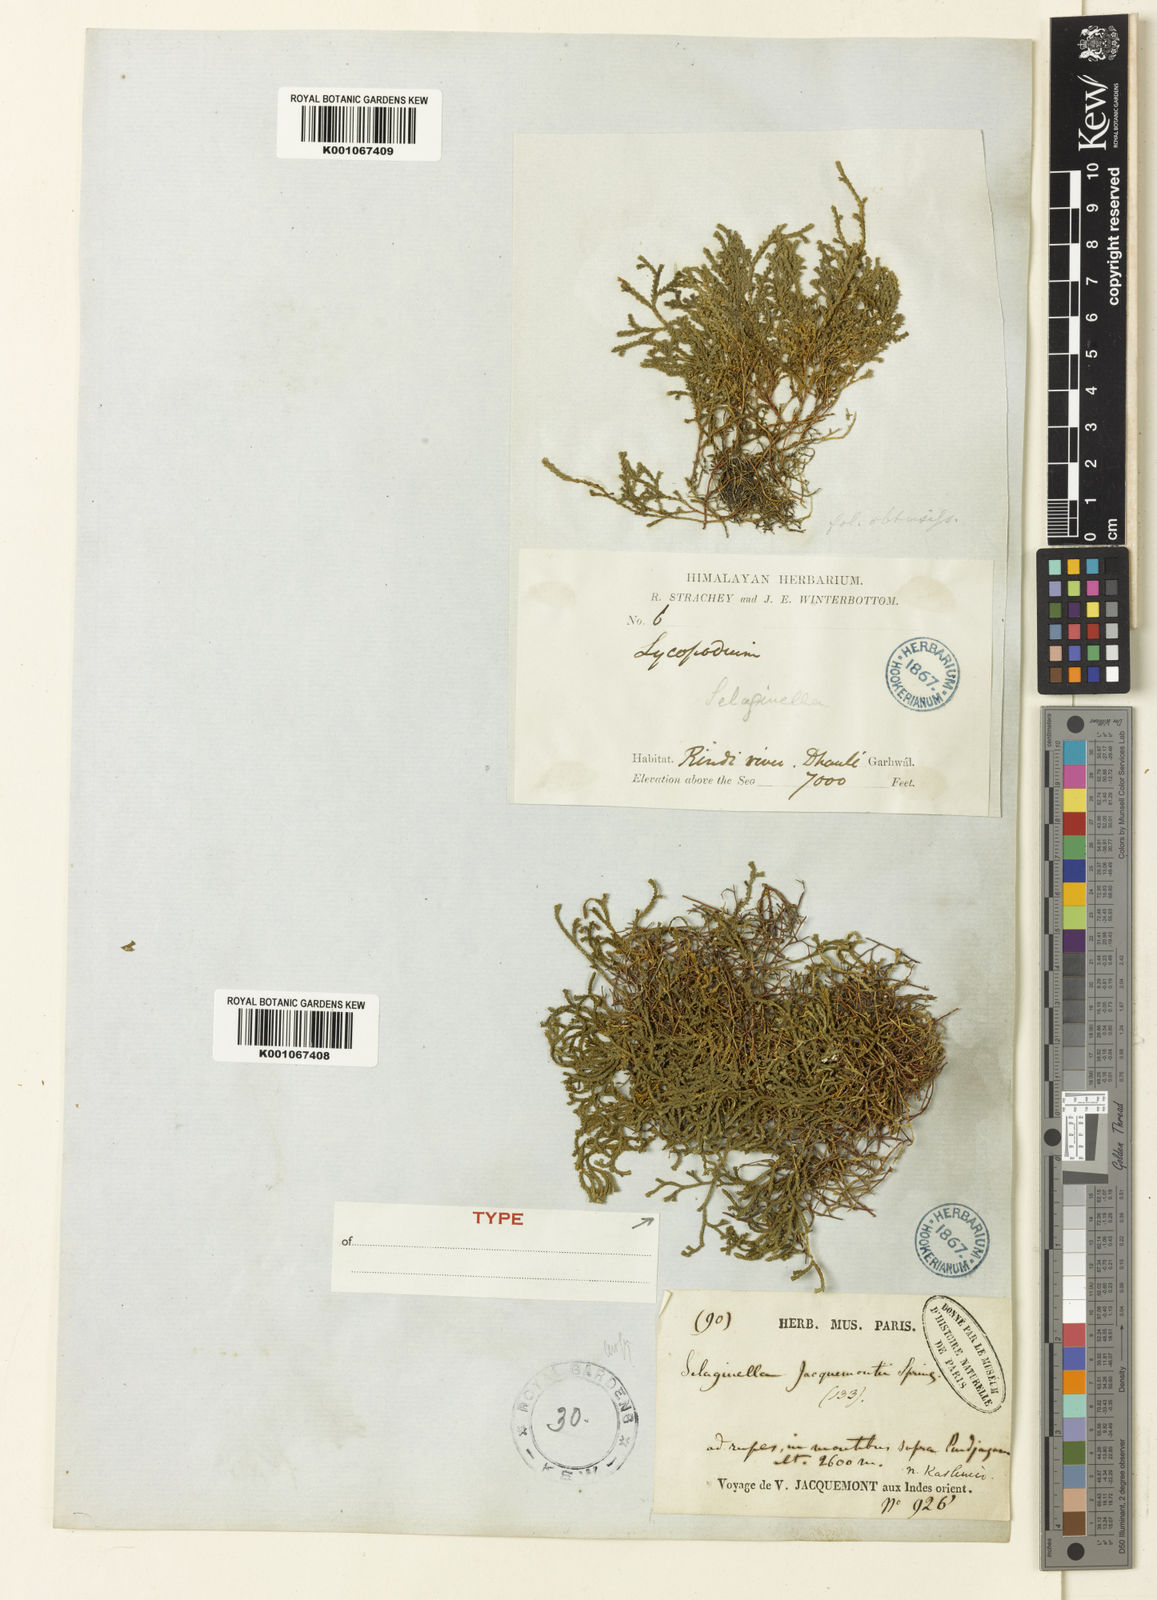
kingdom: Plantae
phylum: Tracheophyta
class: Lycopodiopsida
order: Selaginellales
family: Selaginellaceae
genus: Selaginella
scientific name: Selaginella sanguinolenta
